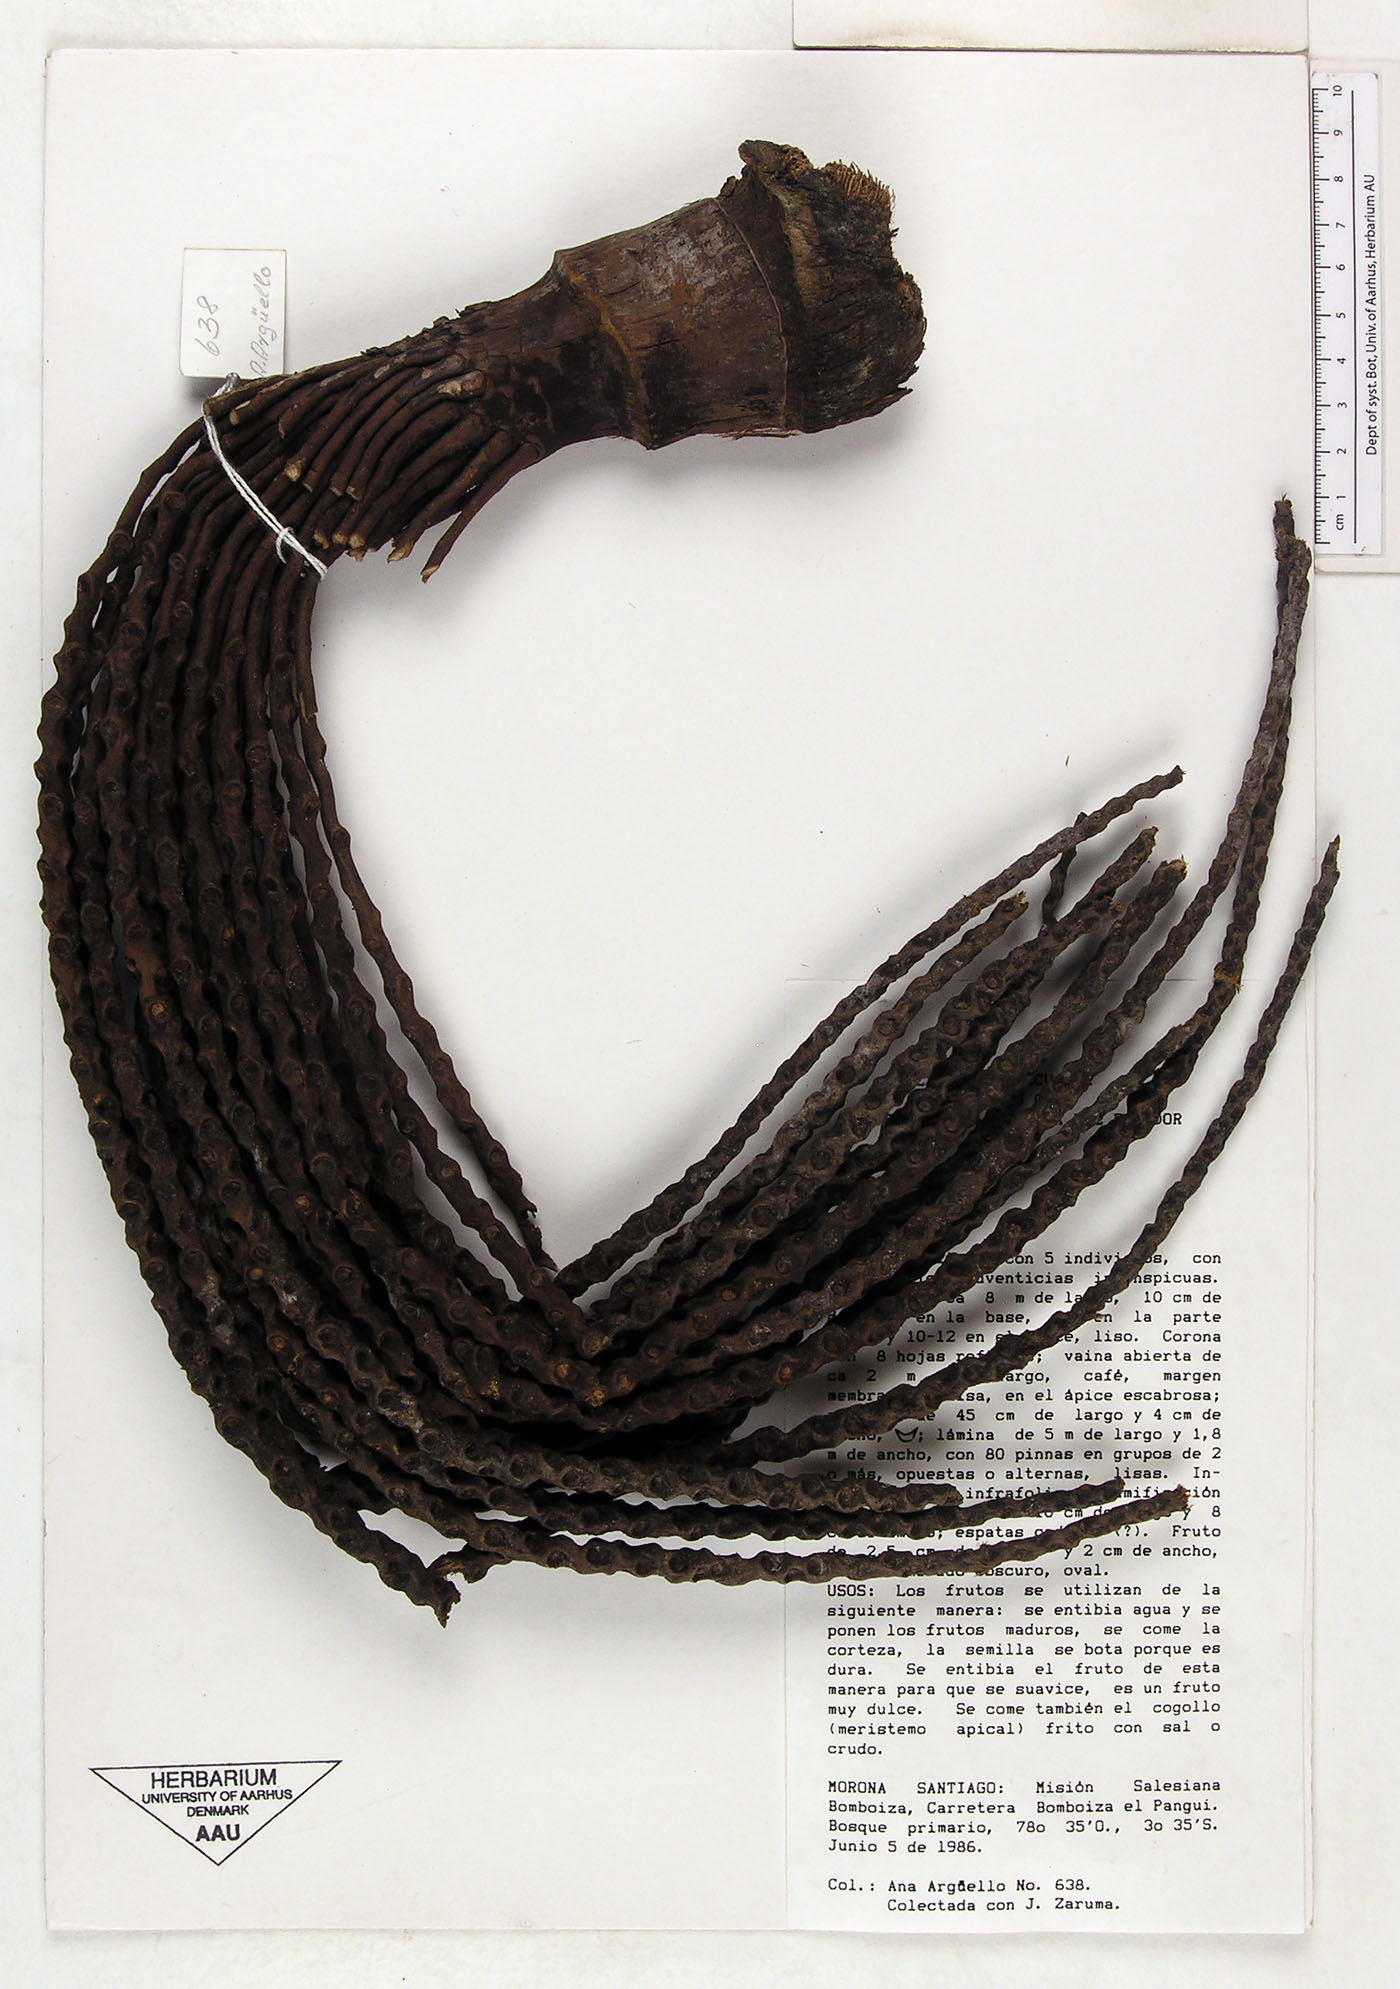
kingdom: Plantae
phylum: Tracheophyta
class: Liliopsida
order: Arecales
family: Arecaceae
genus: Oenocarpus
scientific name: Oenocarpus
